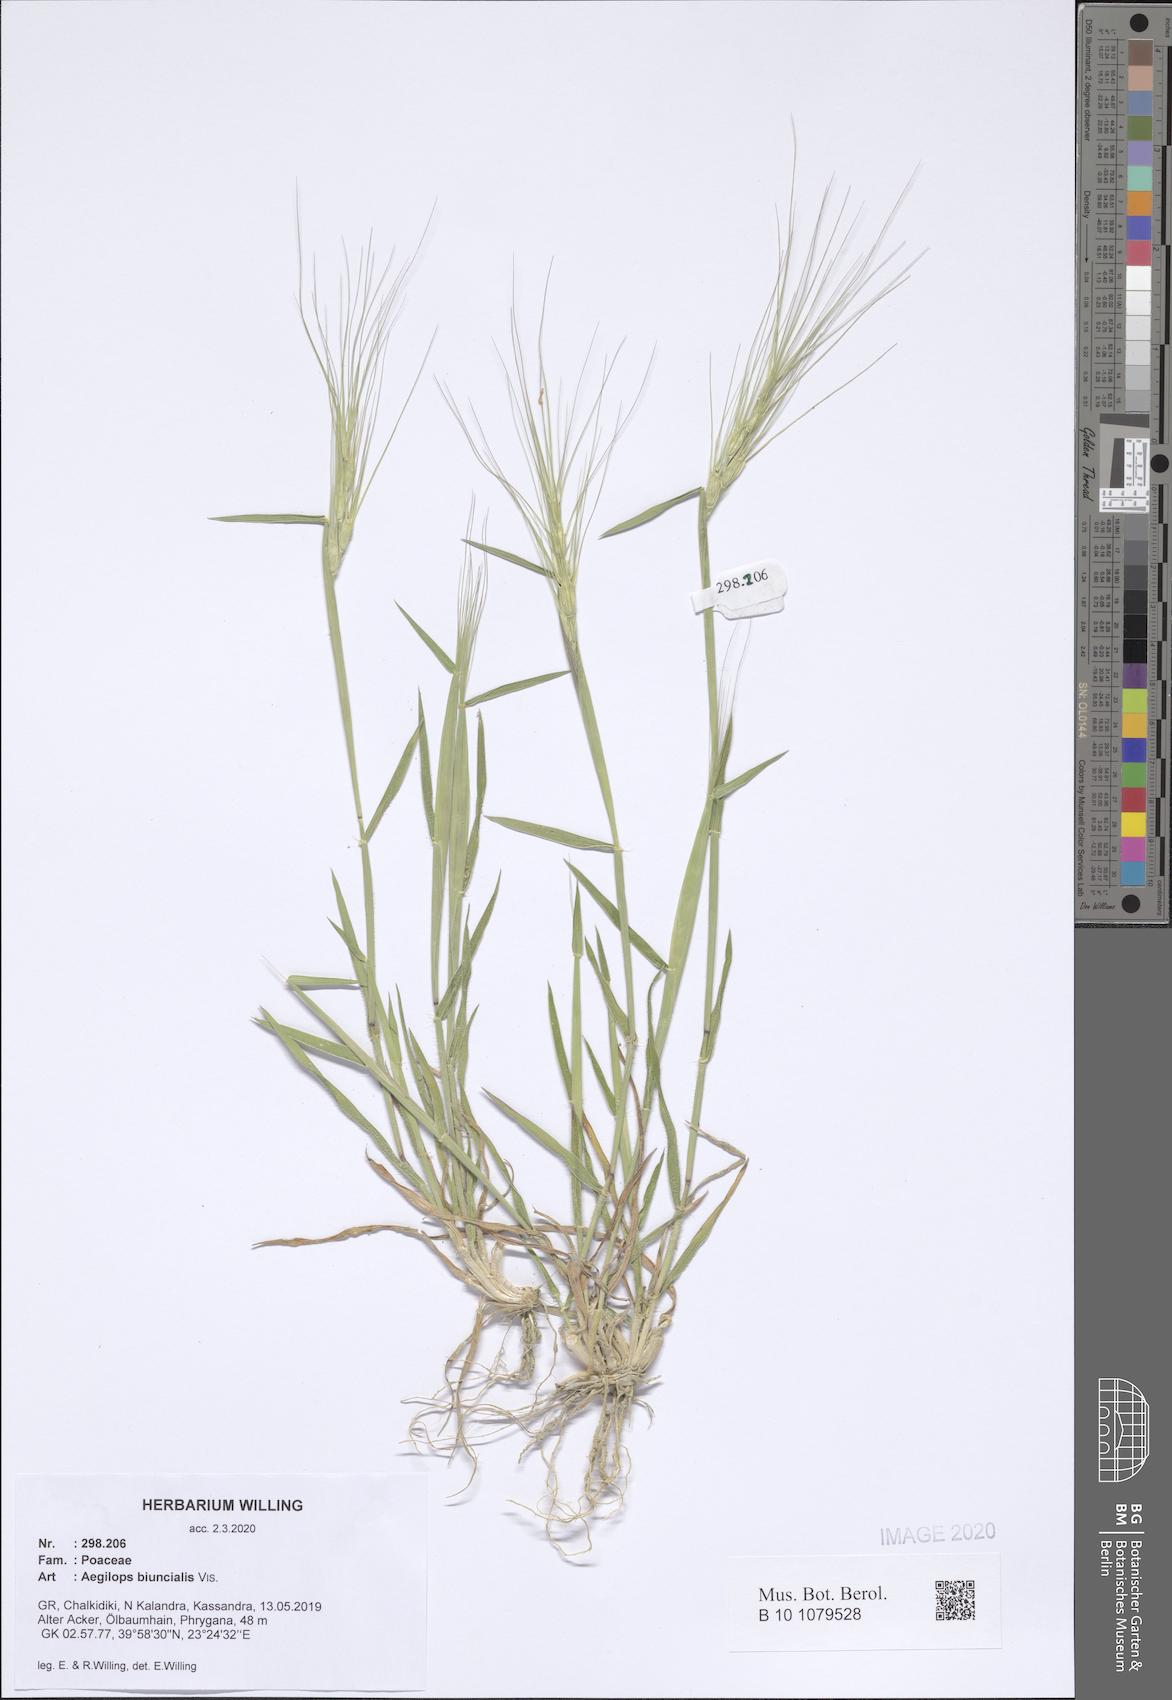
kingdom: Plantae
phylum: Tracheophyta
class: Liliopsida
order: Poales
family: Poaceae
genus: Aegilops
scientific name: Aegilops biuncialis
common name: Mediterranean aegilops
